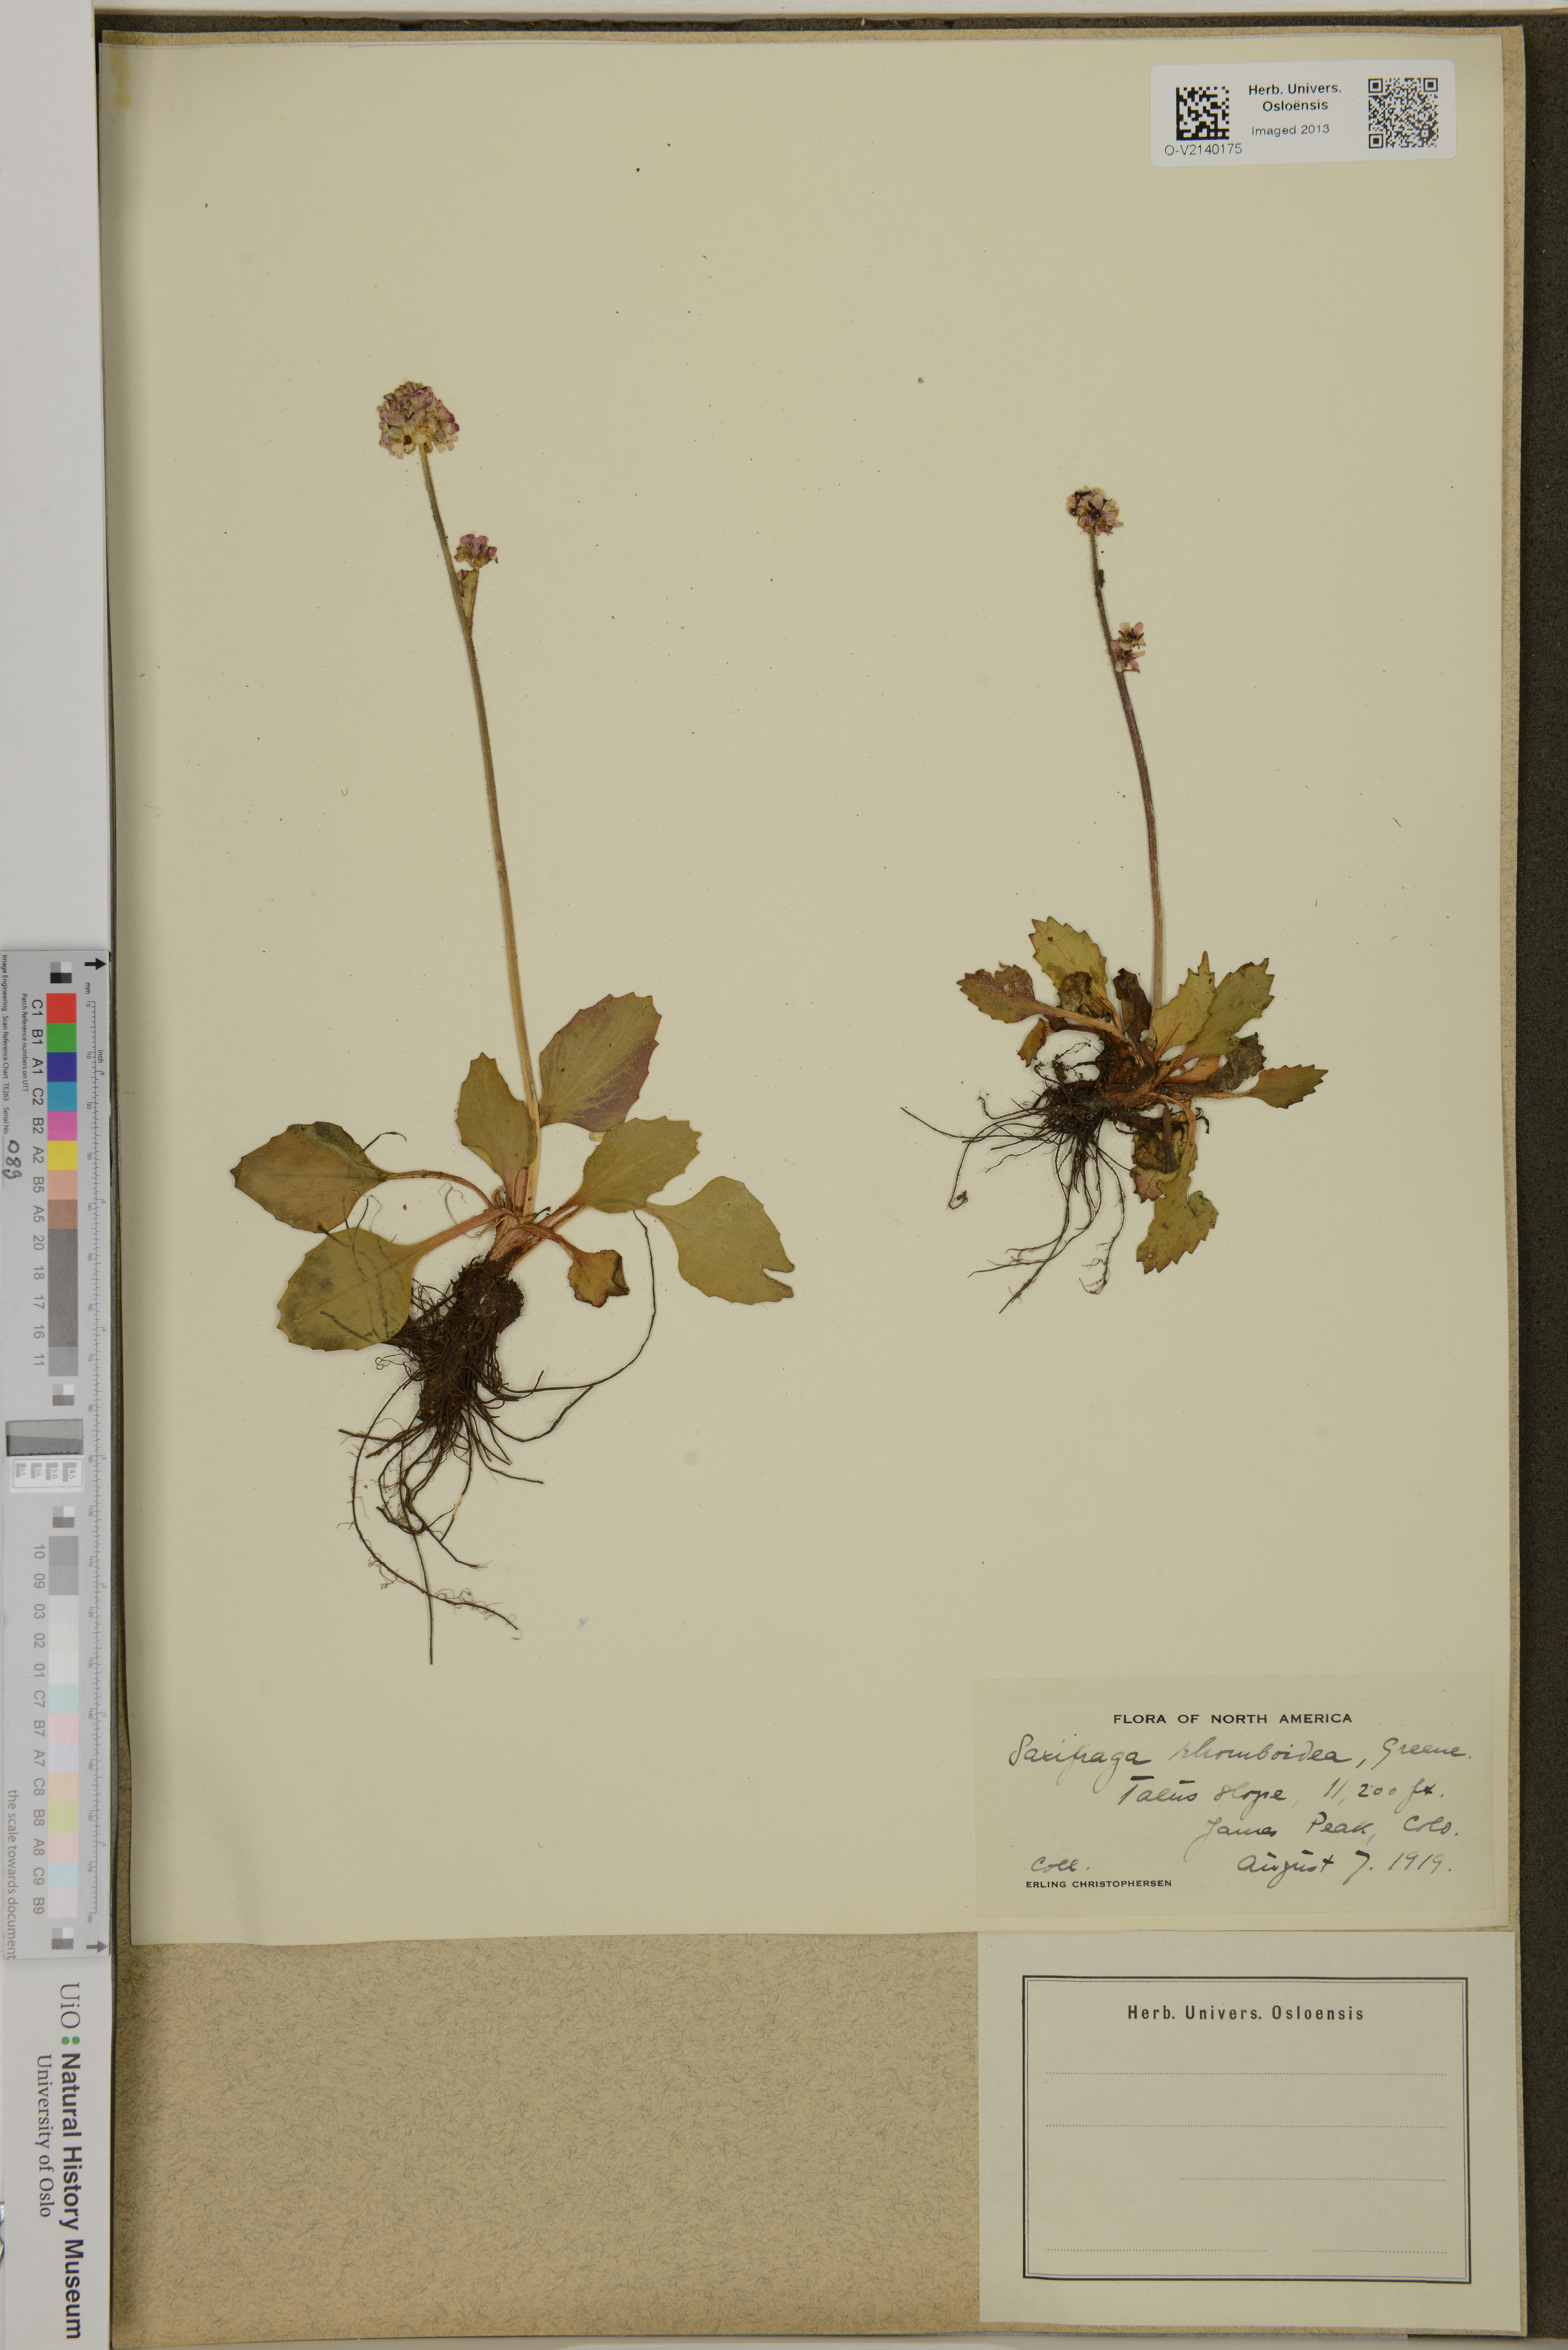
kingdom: Plantae
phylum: Tracheophyta
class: Magnoliopsida
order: Saxifragales
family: Saxifragaceae
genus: Micranthes
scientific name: Micranthes rhomboidea
